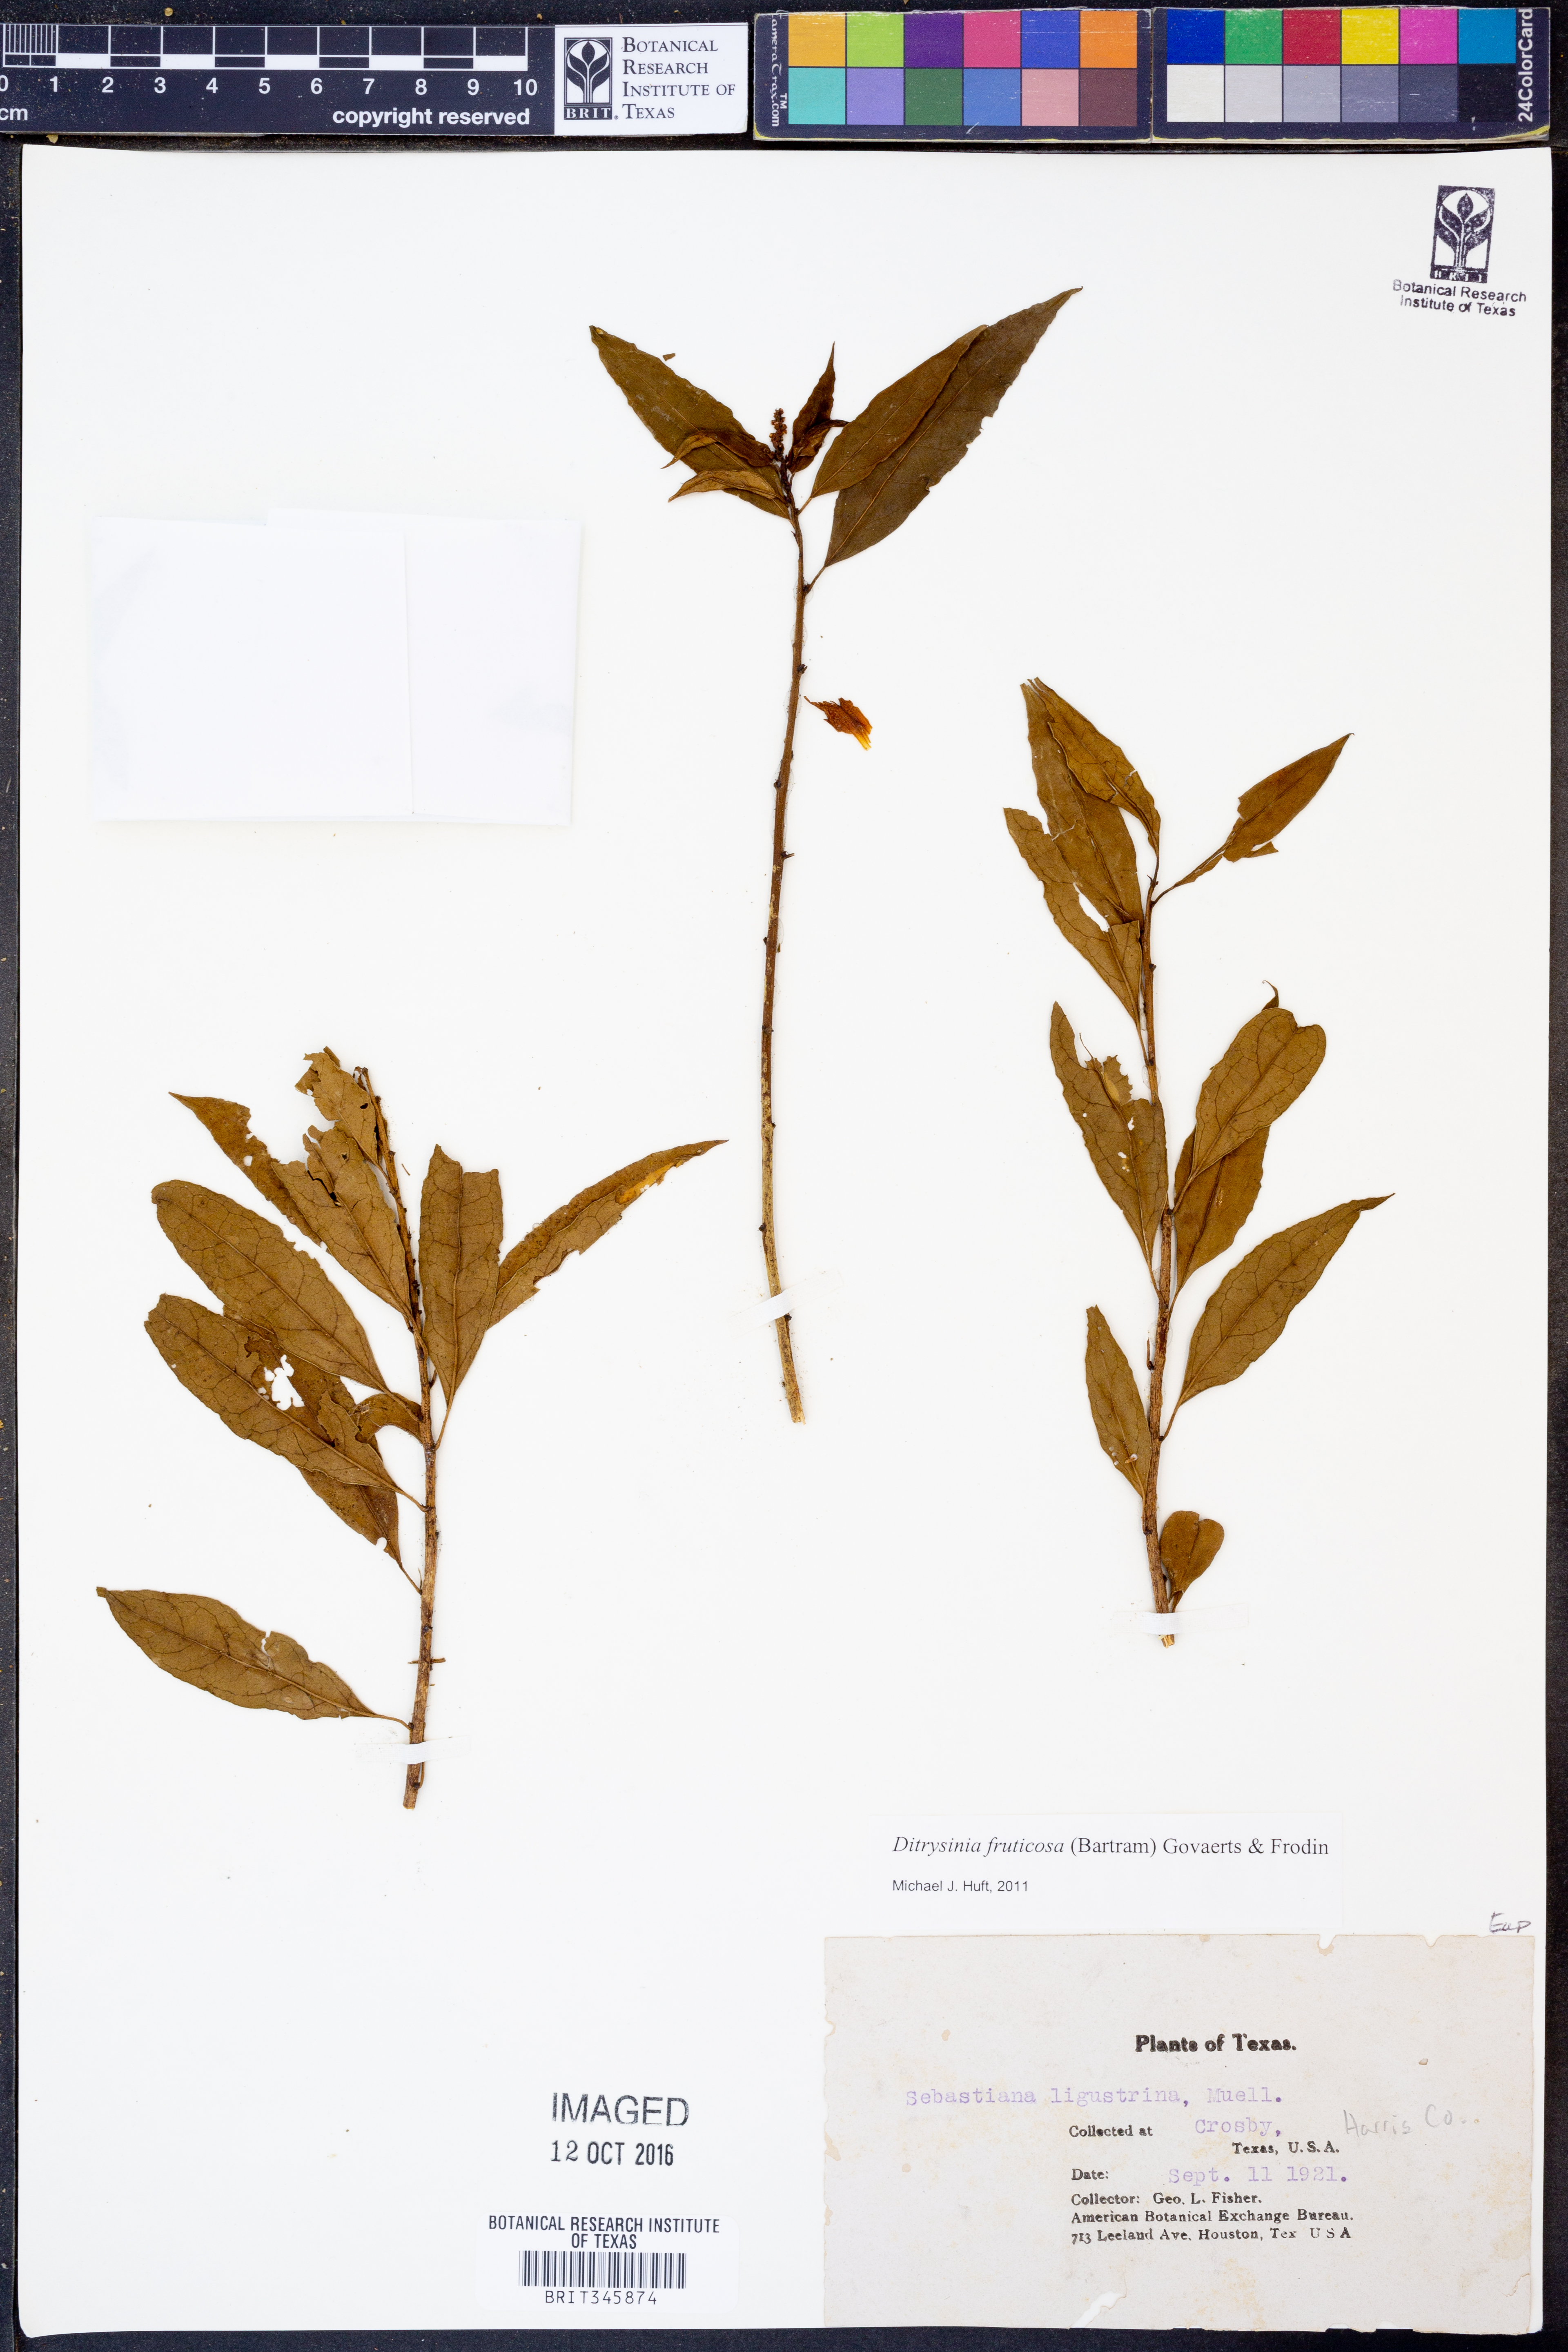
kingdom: Plantae
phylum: Tracheophyta
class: Magnoliopsida
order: Malpighiales
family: Euphorbiaceae
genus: Ditrysinia
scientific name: Ditrysinia fruticosa
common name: Gulf sebastian-bush
